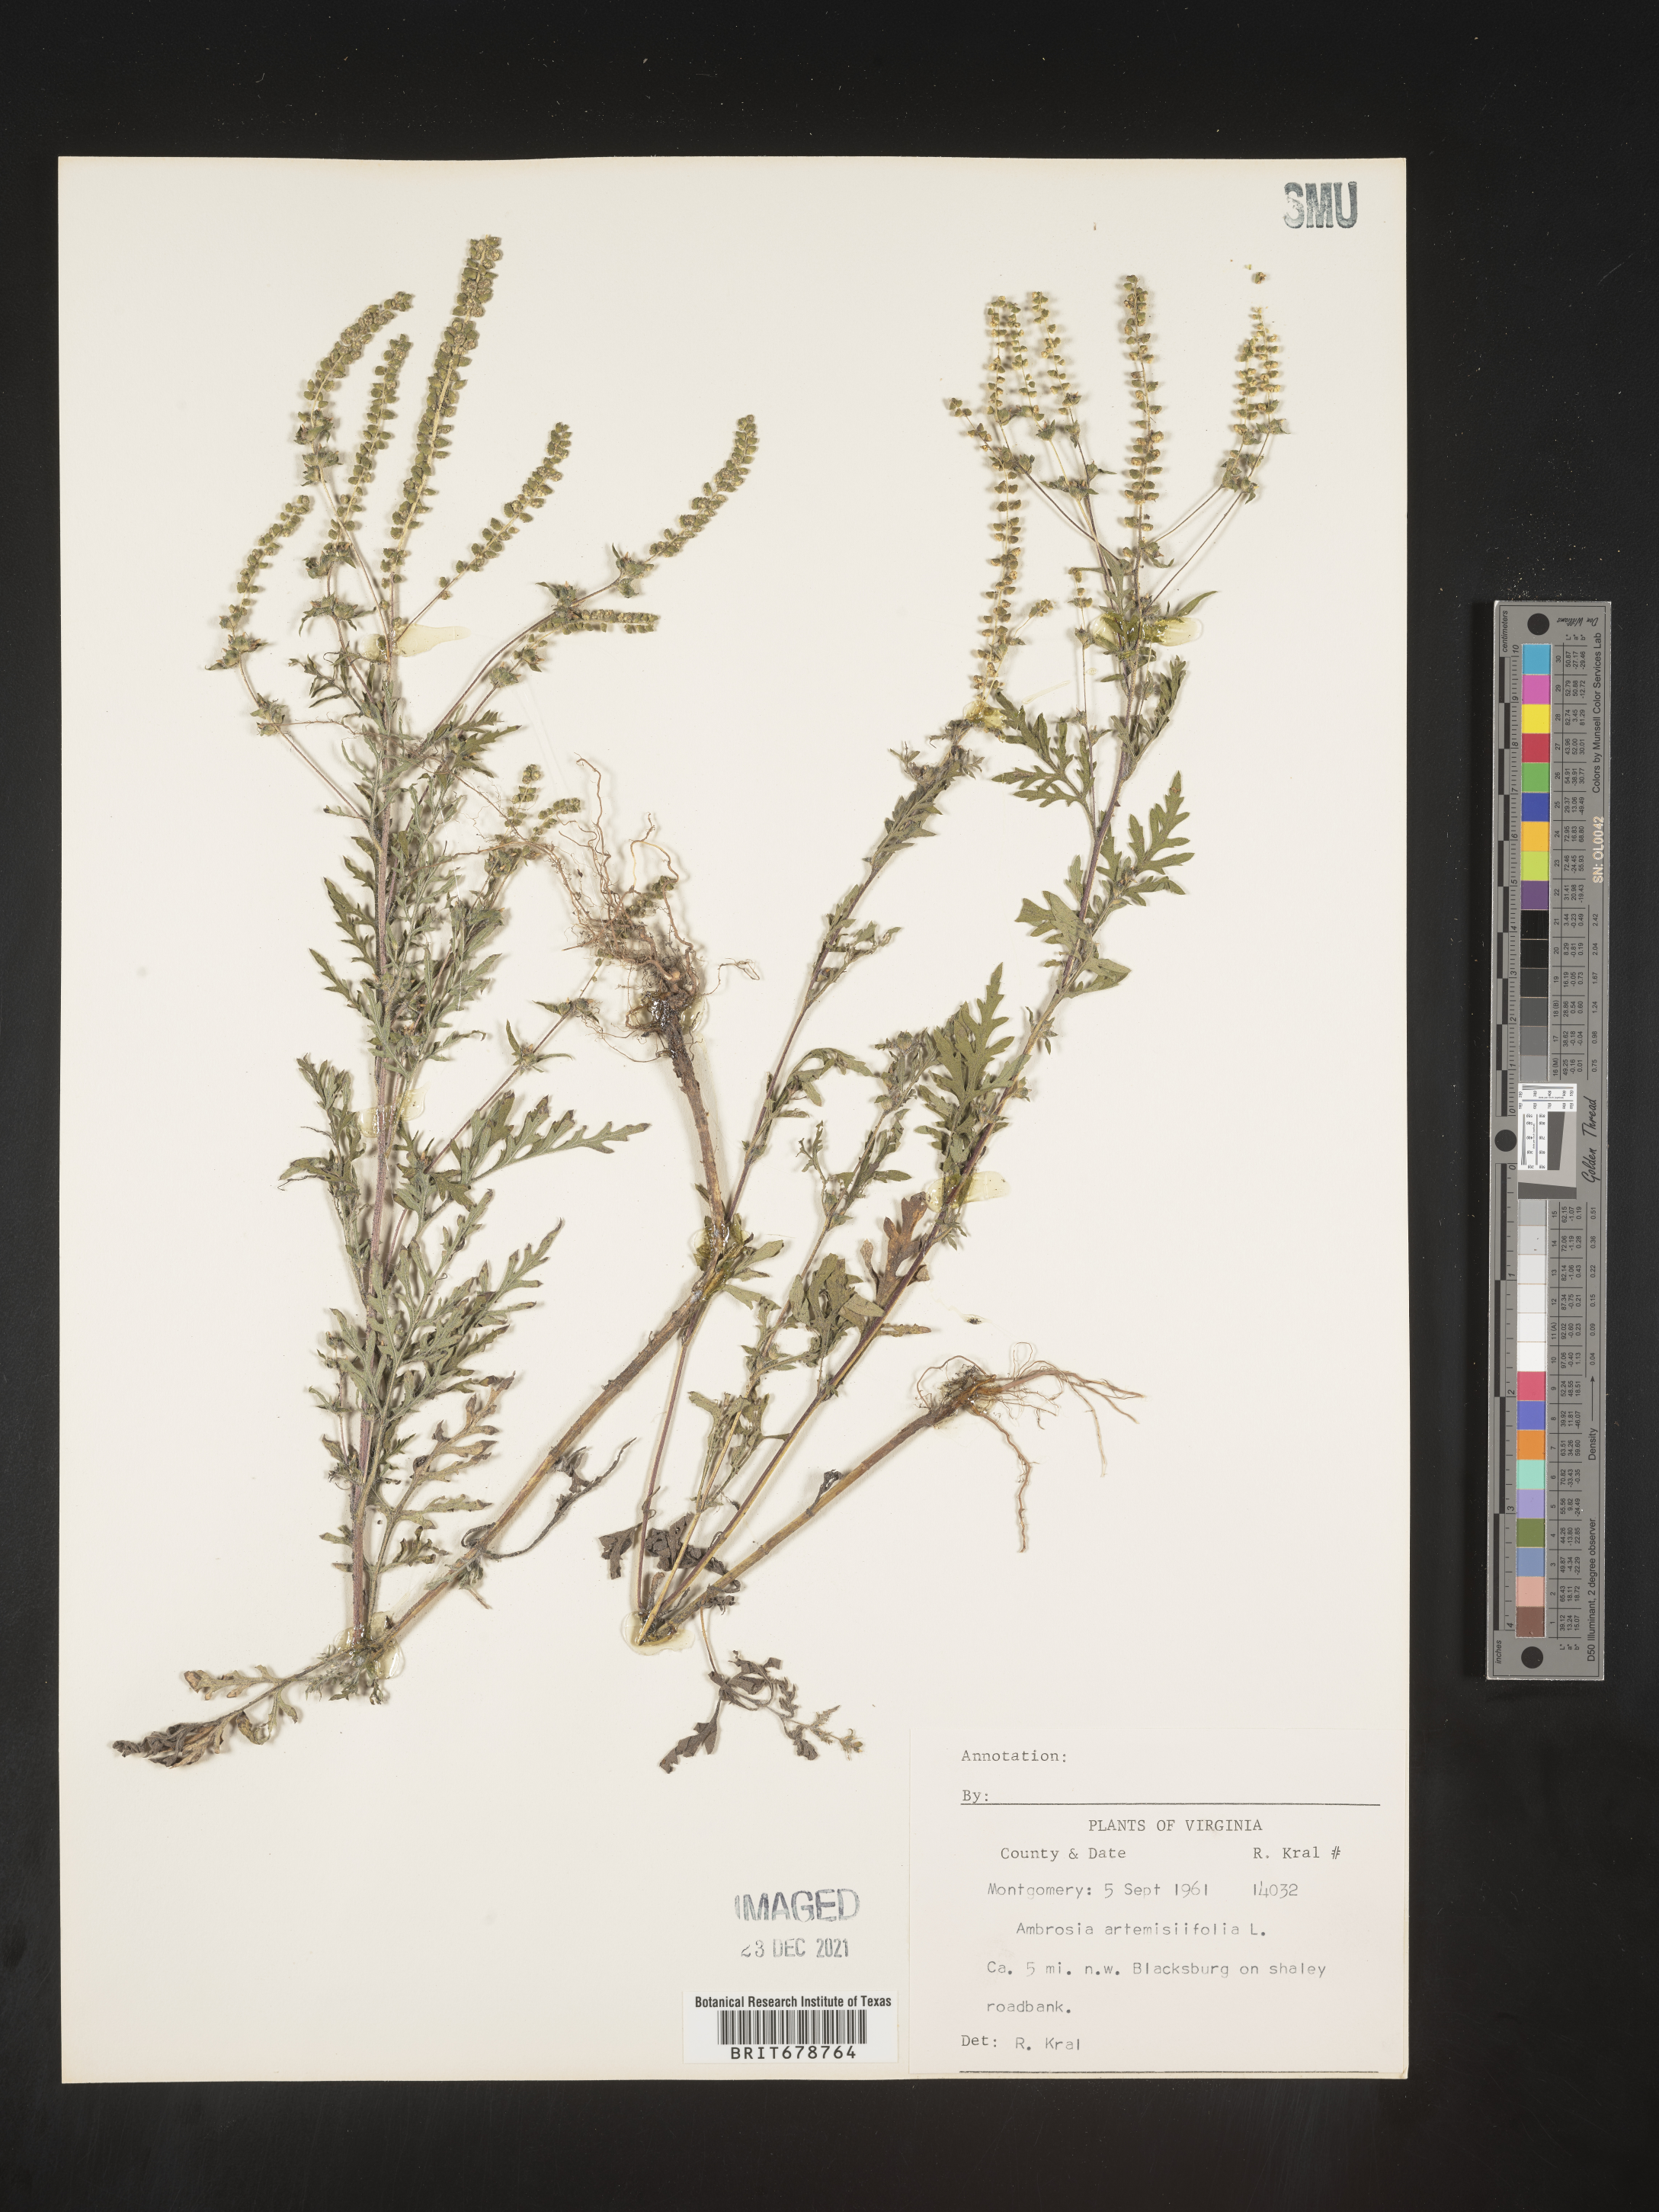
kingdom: Plantae
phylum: Tracheophyta
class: Magnoliopsida
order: Asterales
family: Asteraceae
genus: Ambrosia
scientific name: Ambrosia artemisiifolia
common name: Annual ragweed
